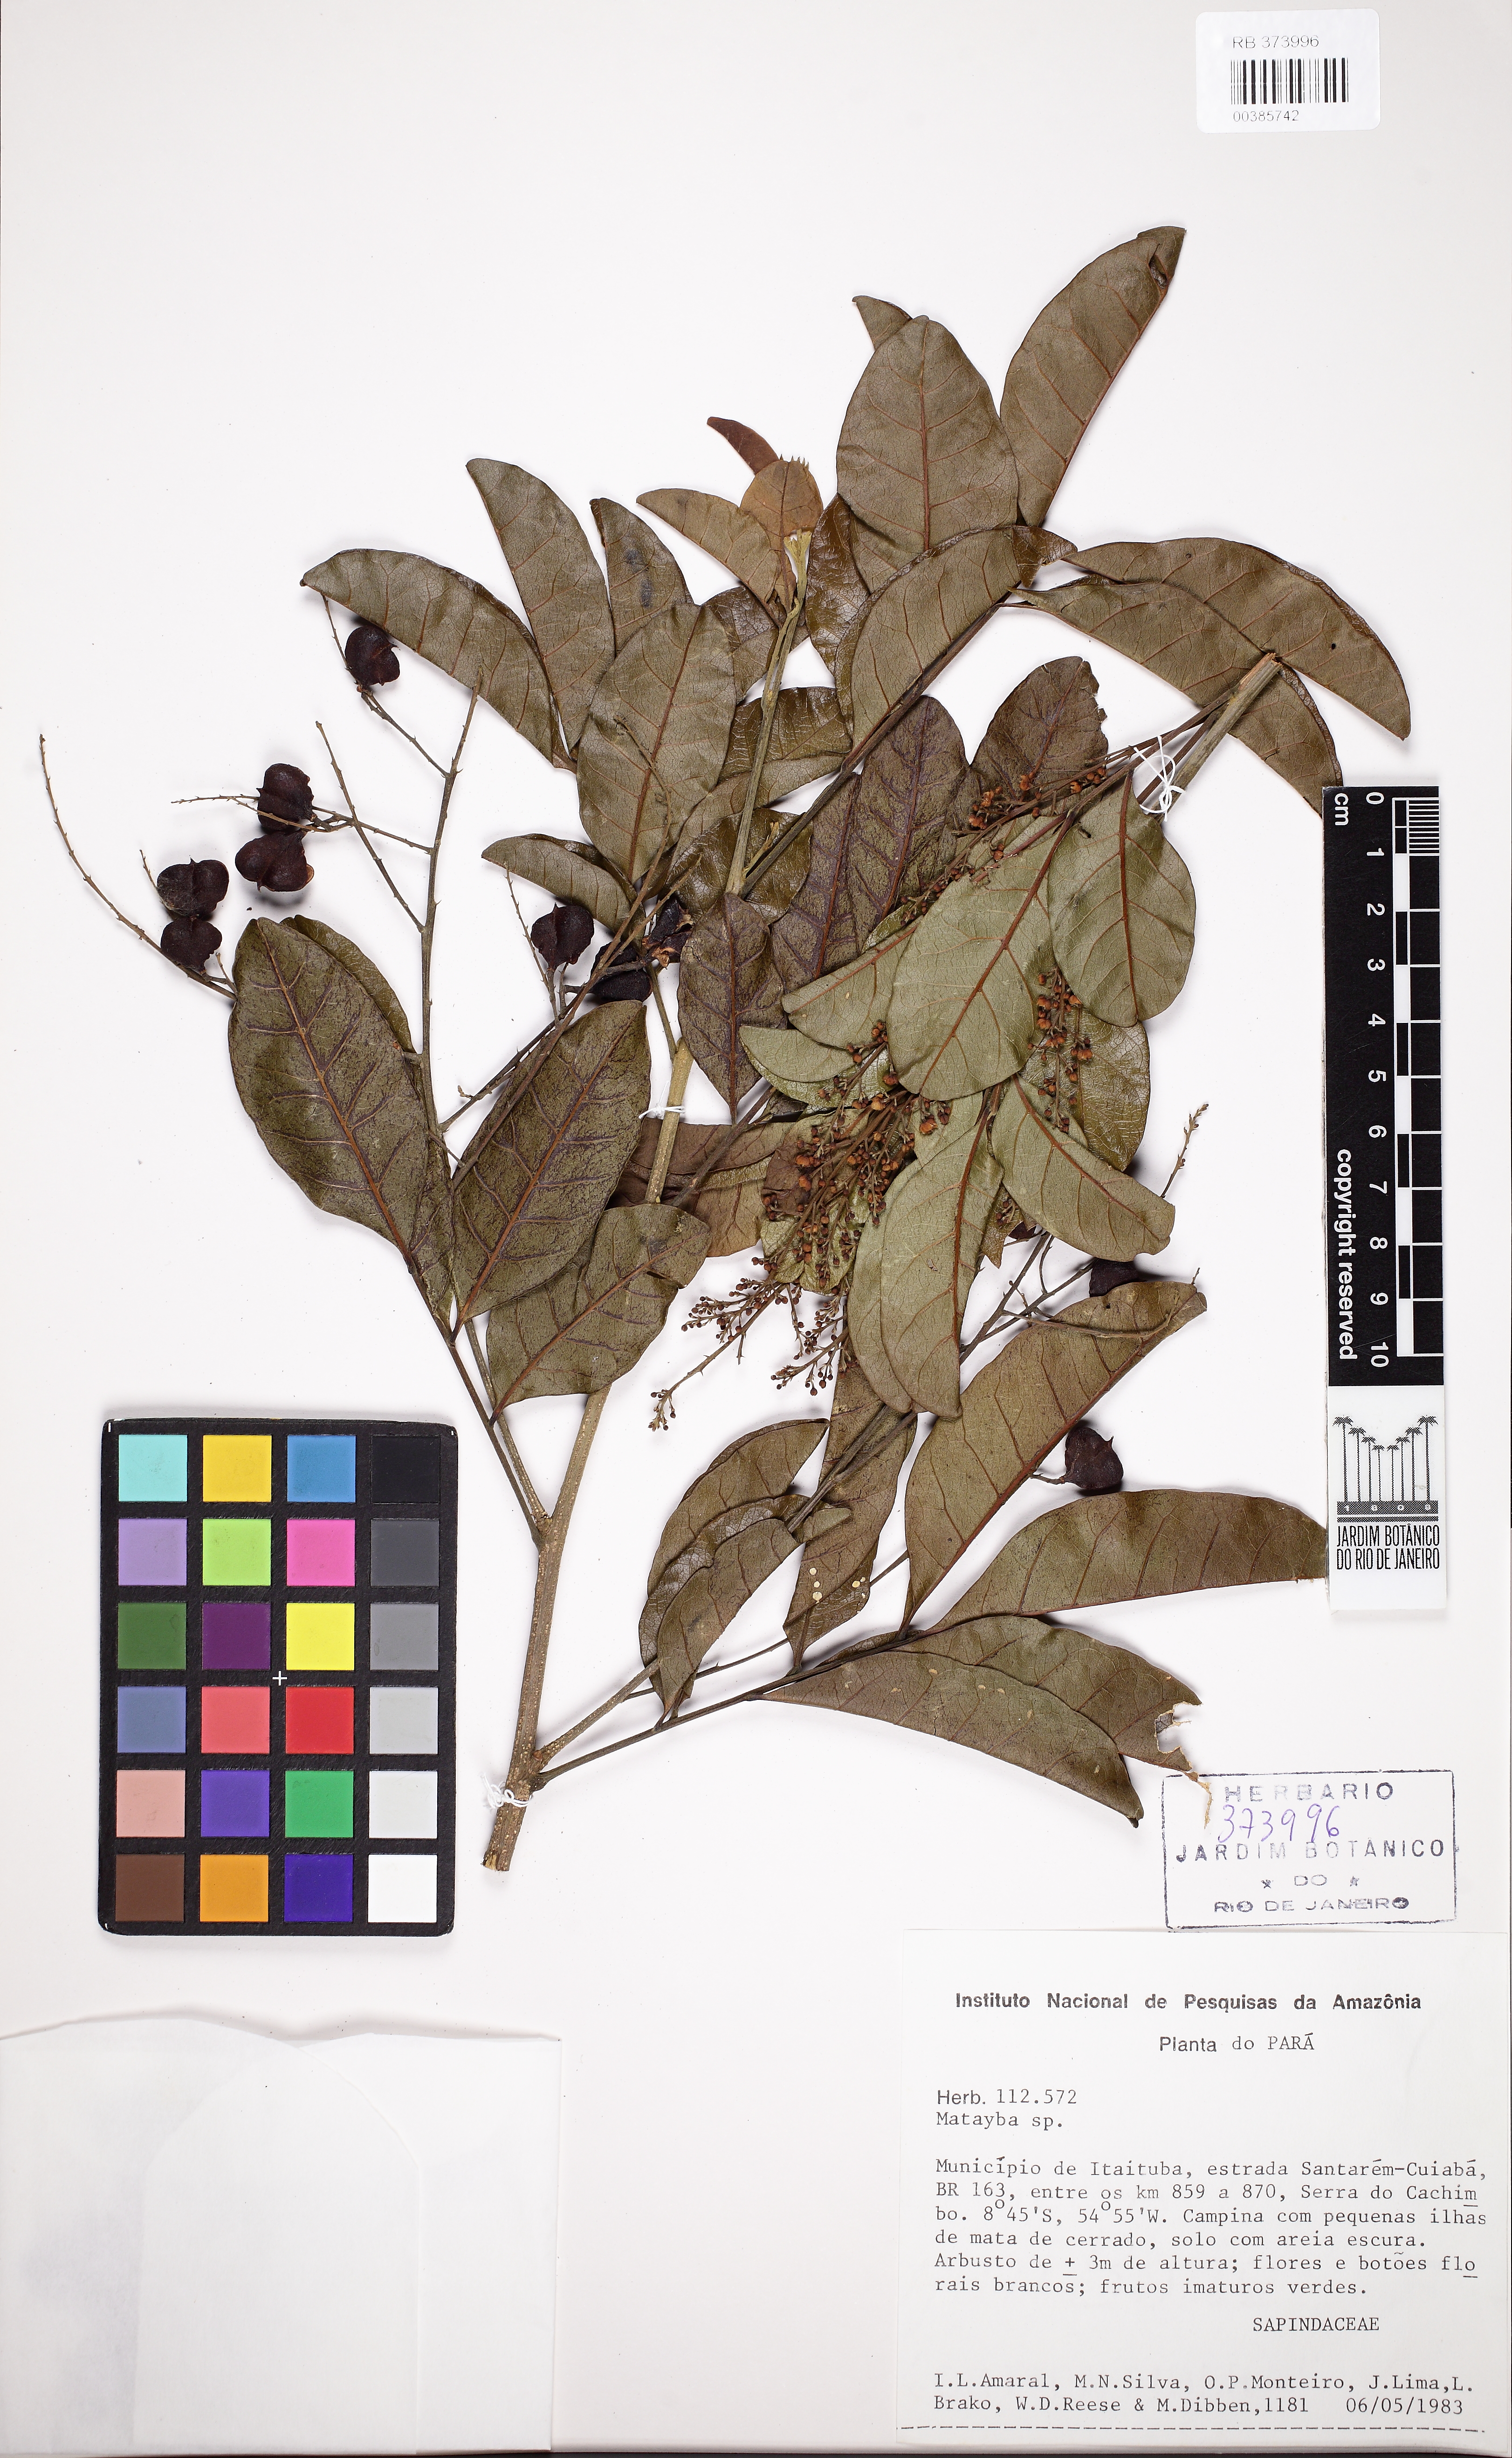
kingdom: Plantae
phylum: Tracheophyta
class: Magnoliopsida
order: Sapindales
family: Sapindaceae
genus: Matayba
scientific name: Matayba
